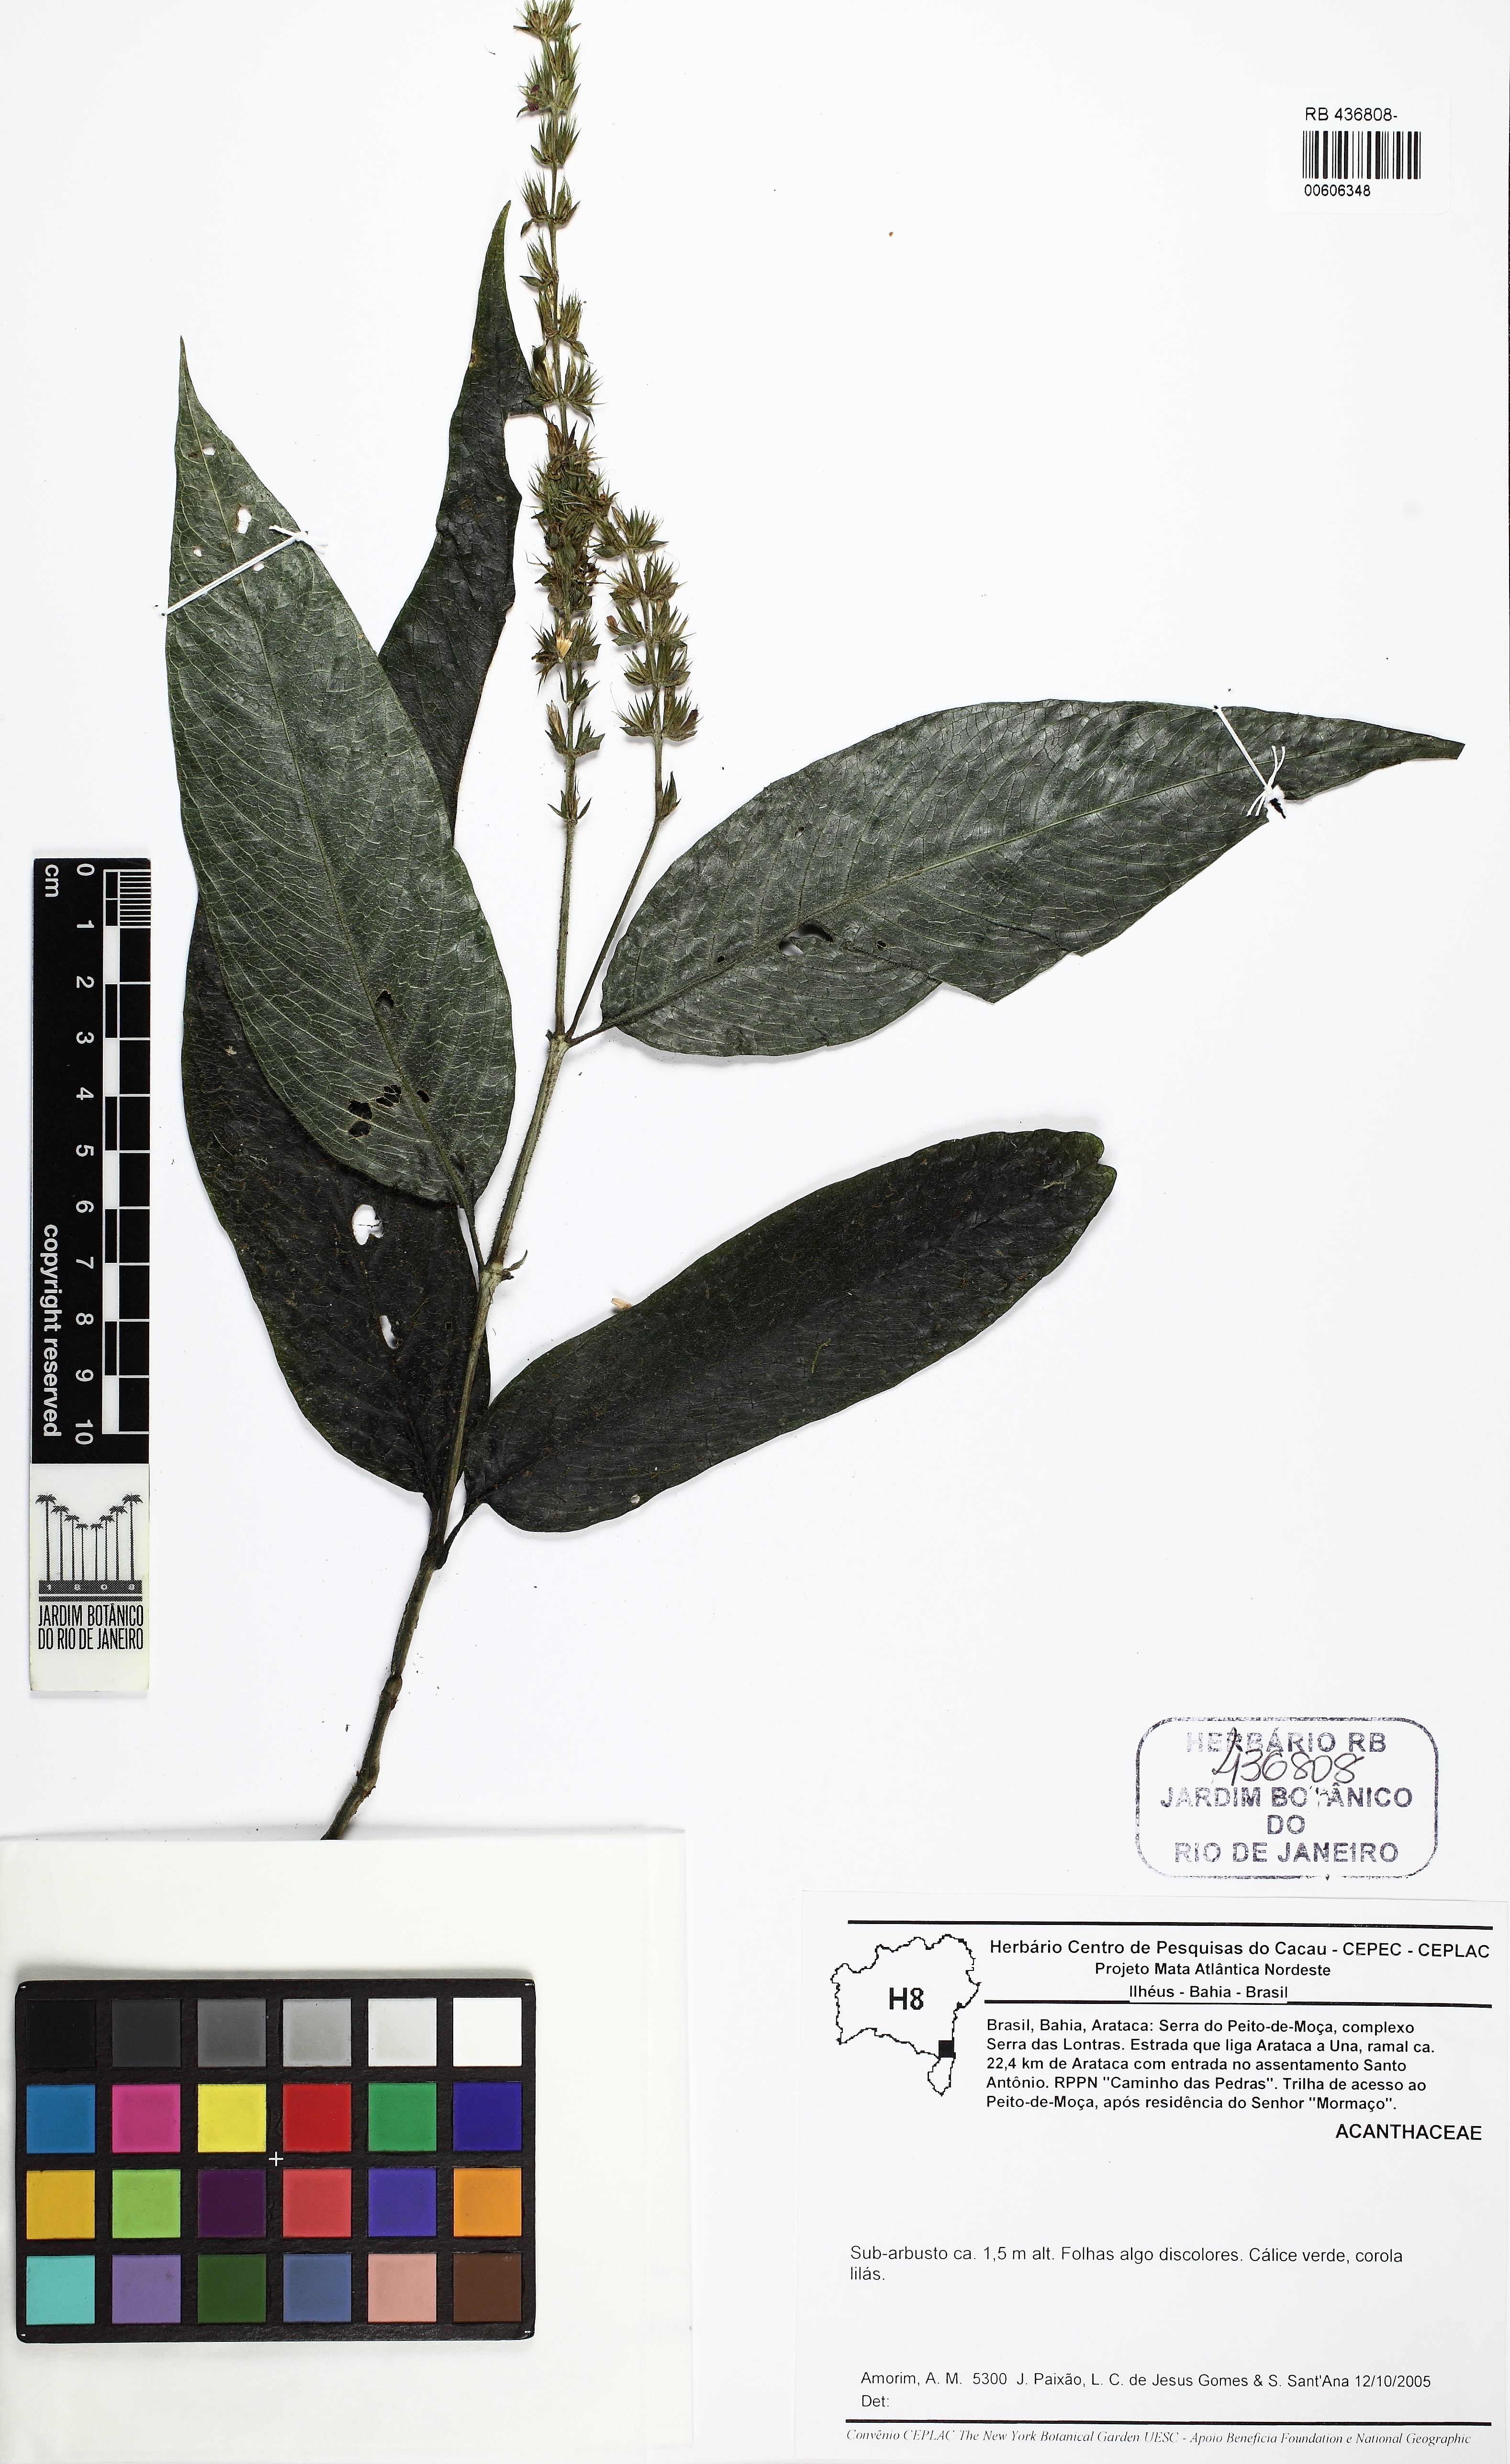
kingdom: Plantae
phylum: Tracheophyta
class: Magnoliopsida
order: Lamiales
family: Acanthaceae
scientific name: Acanthaceae
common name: Acanthaceae
